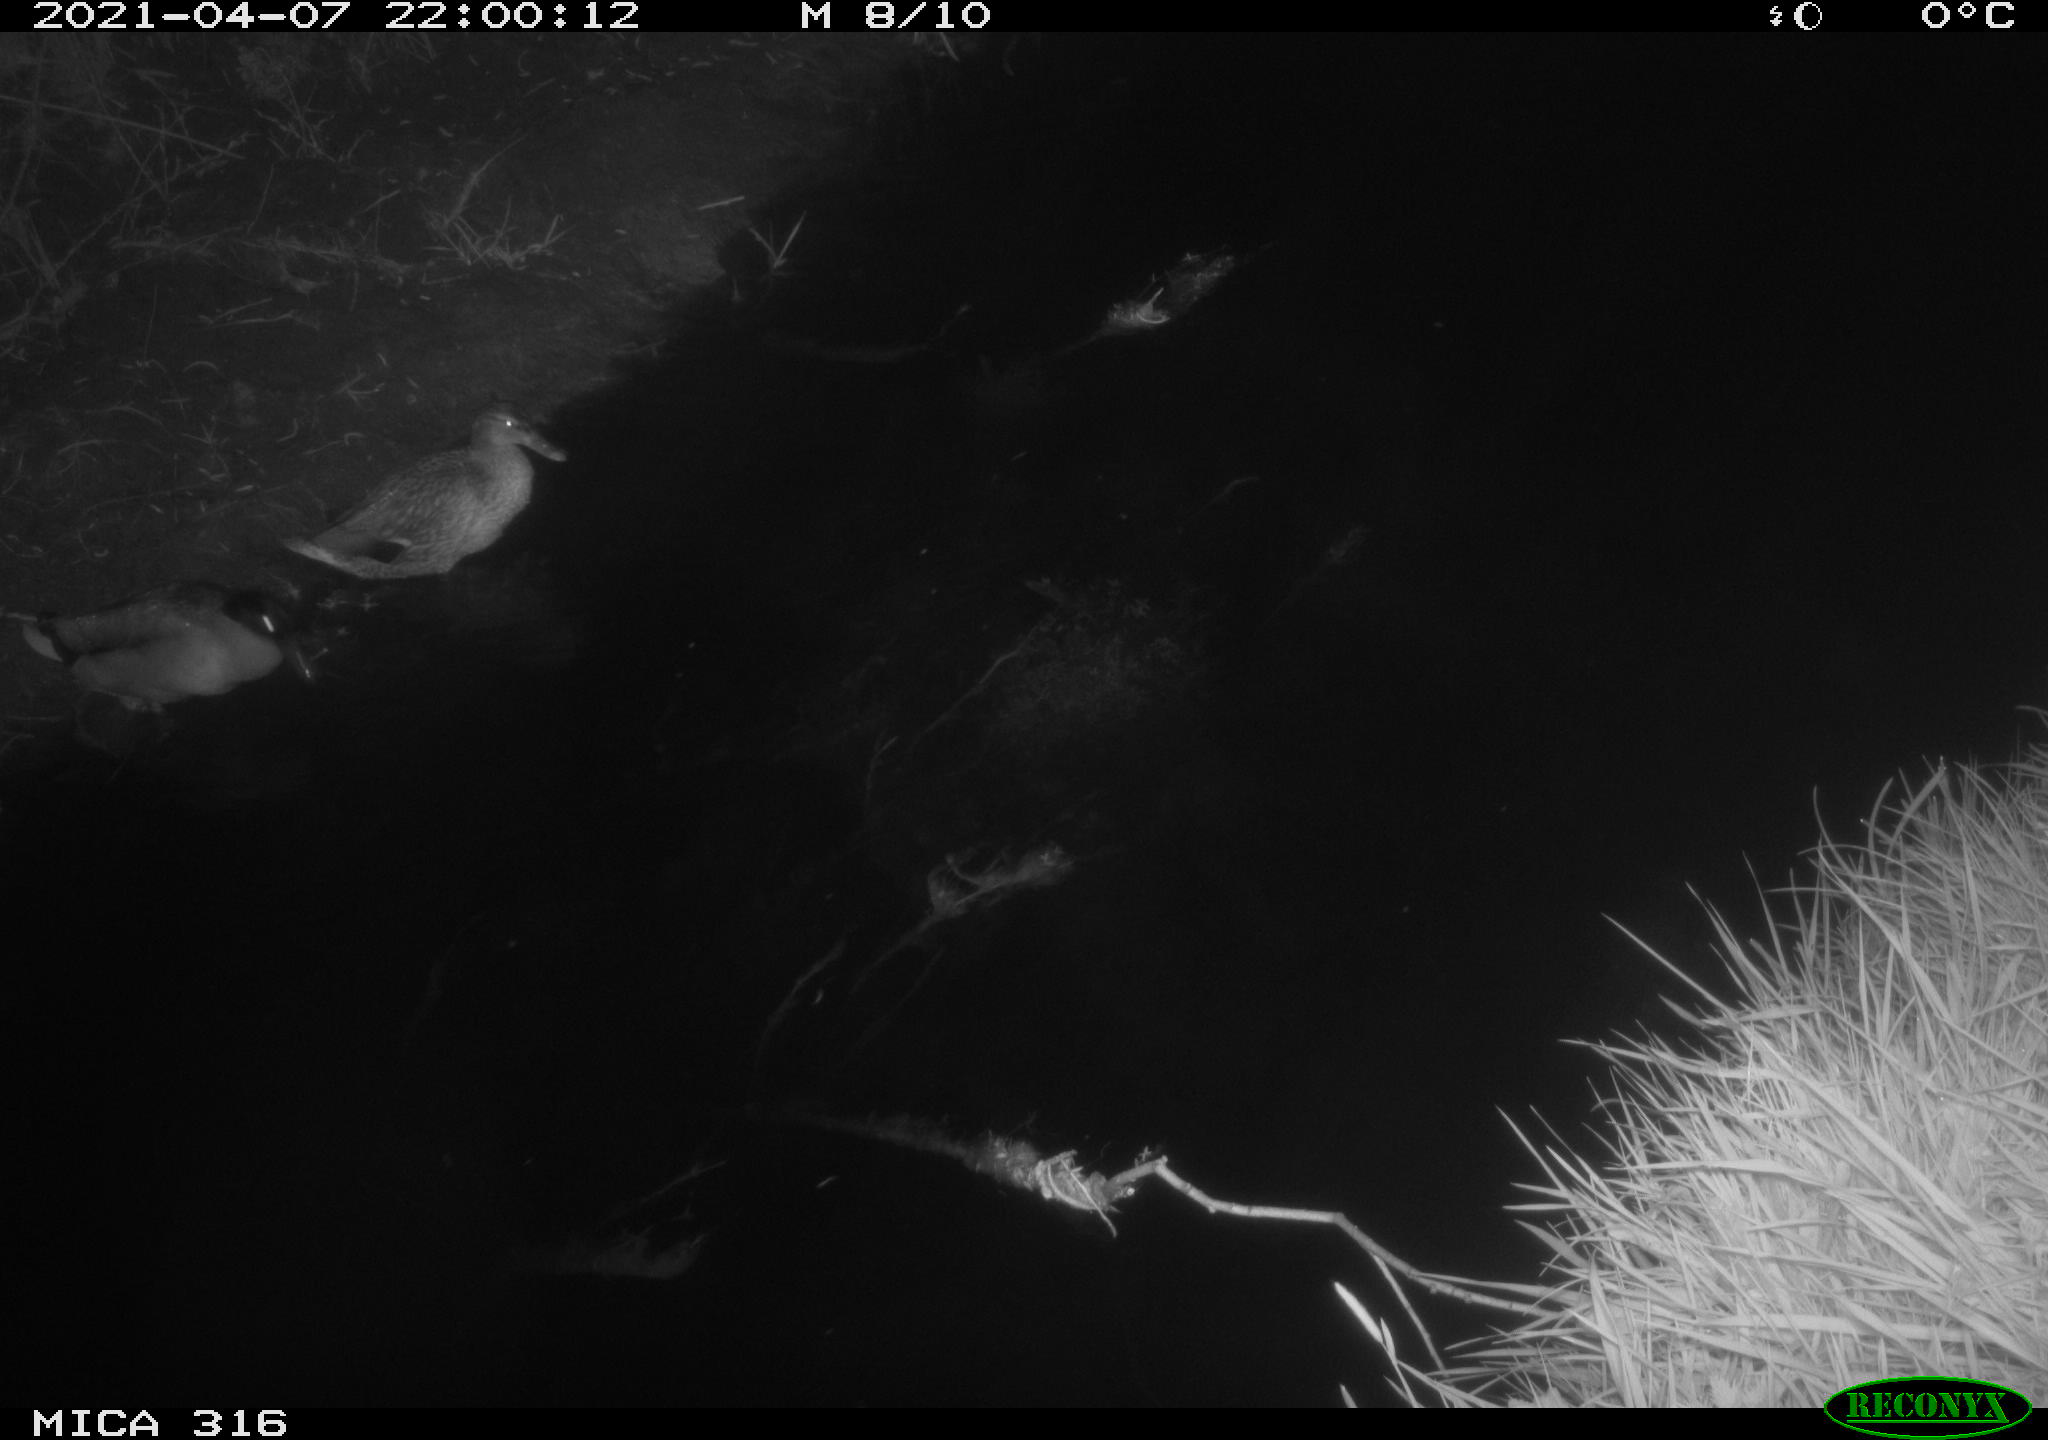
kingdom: Animalia
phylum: Chordata
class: Aves
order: Anseriformes
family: Anatidae
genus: Anas
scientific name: Anas platyrhynchos
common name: Mallard
